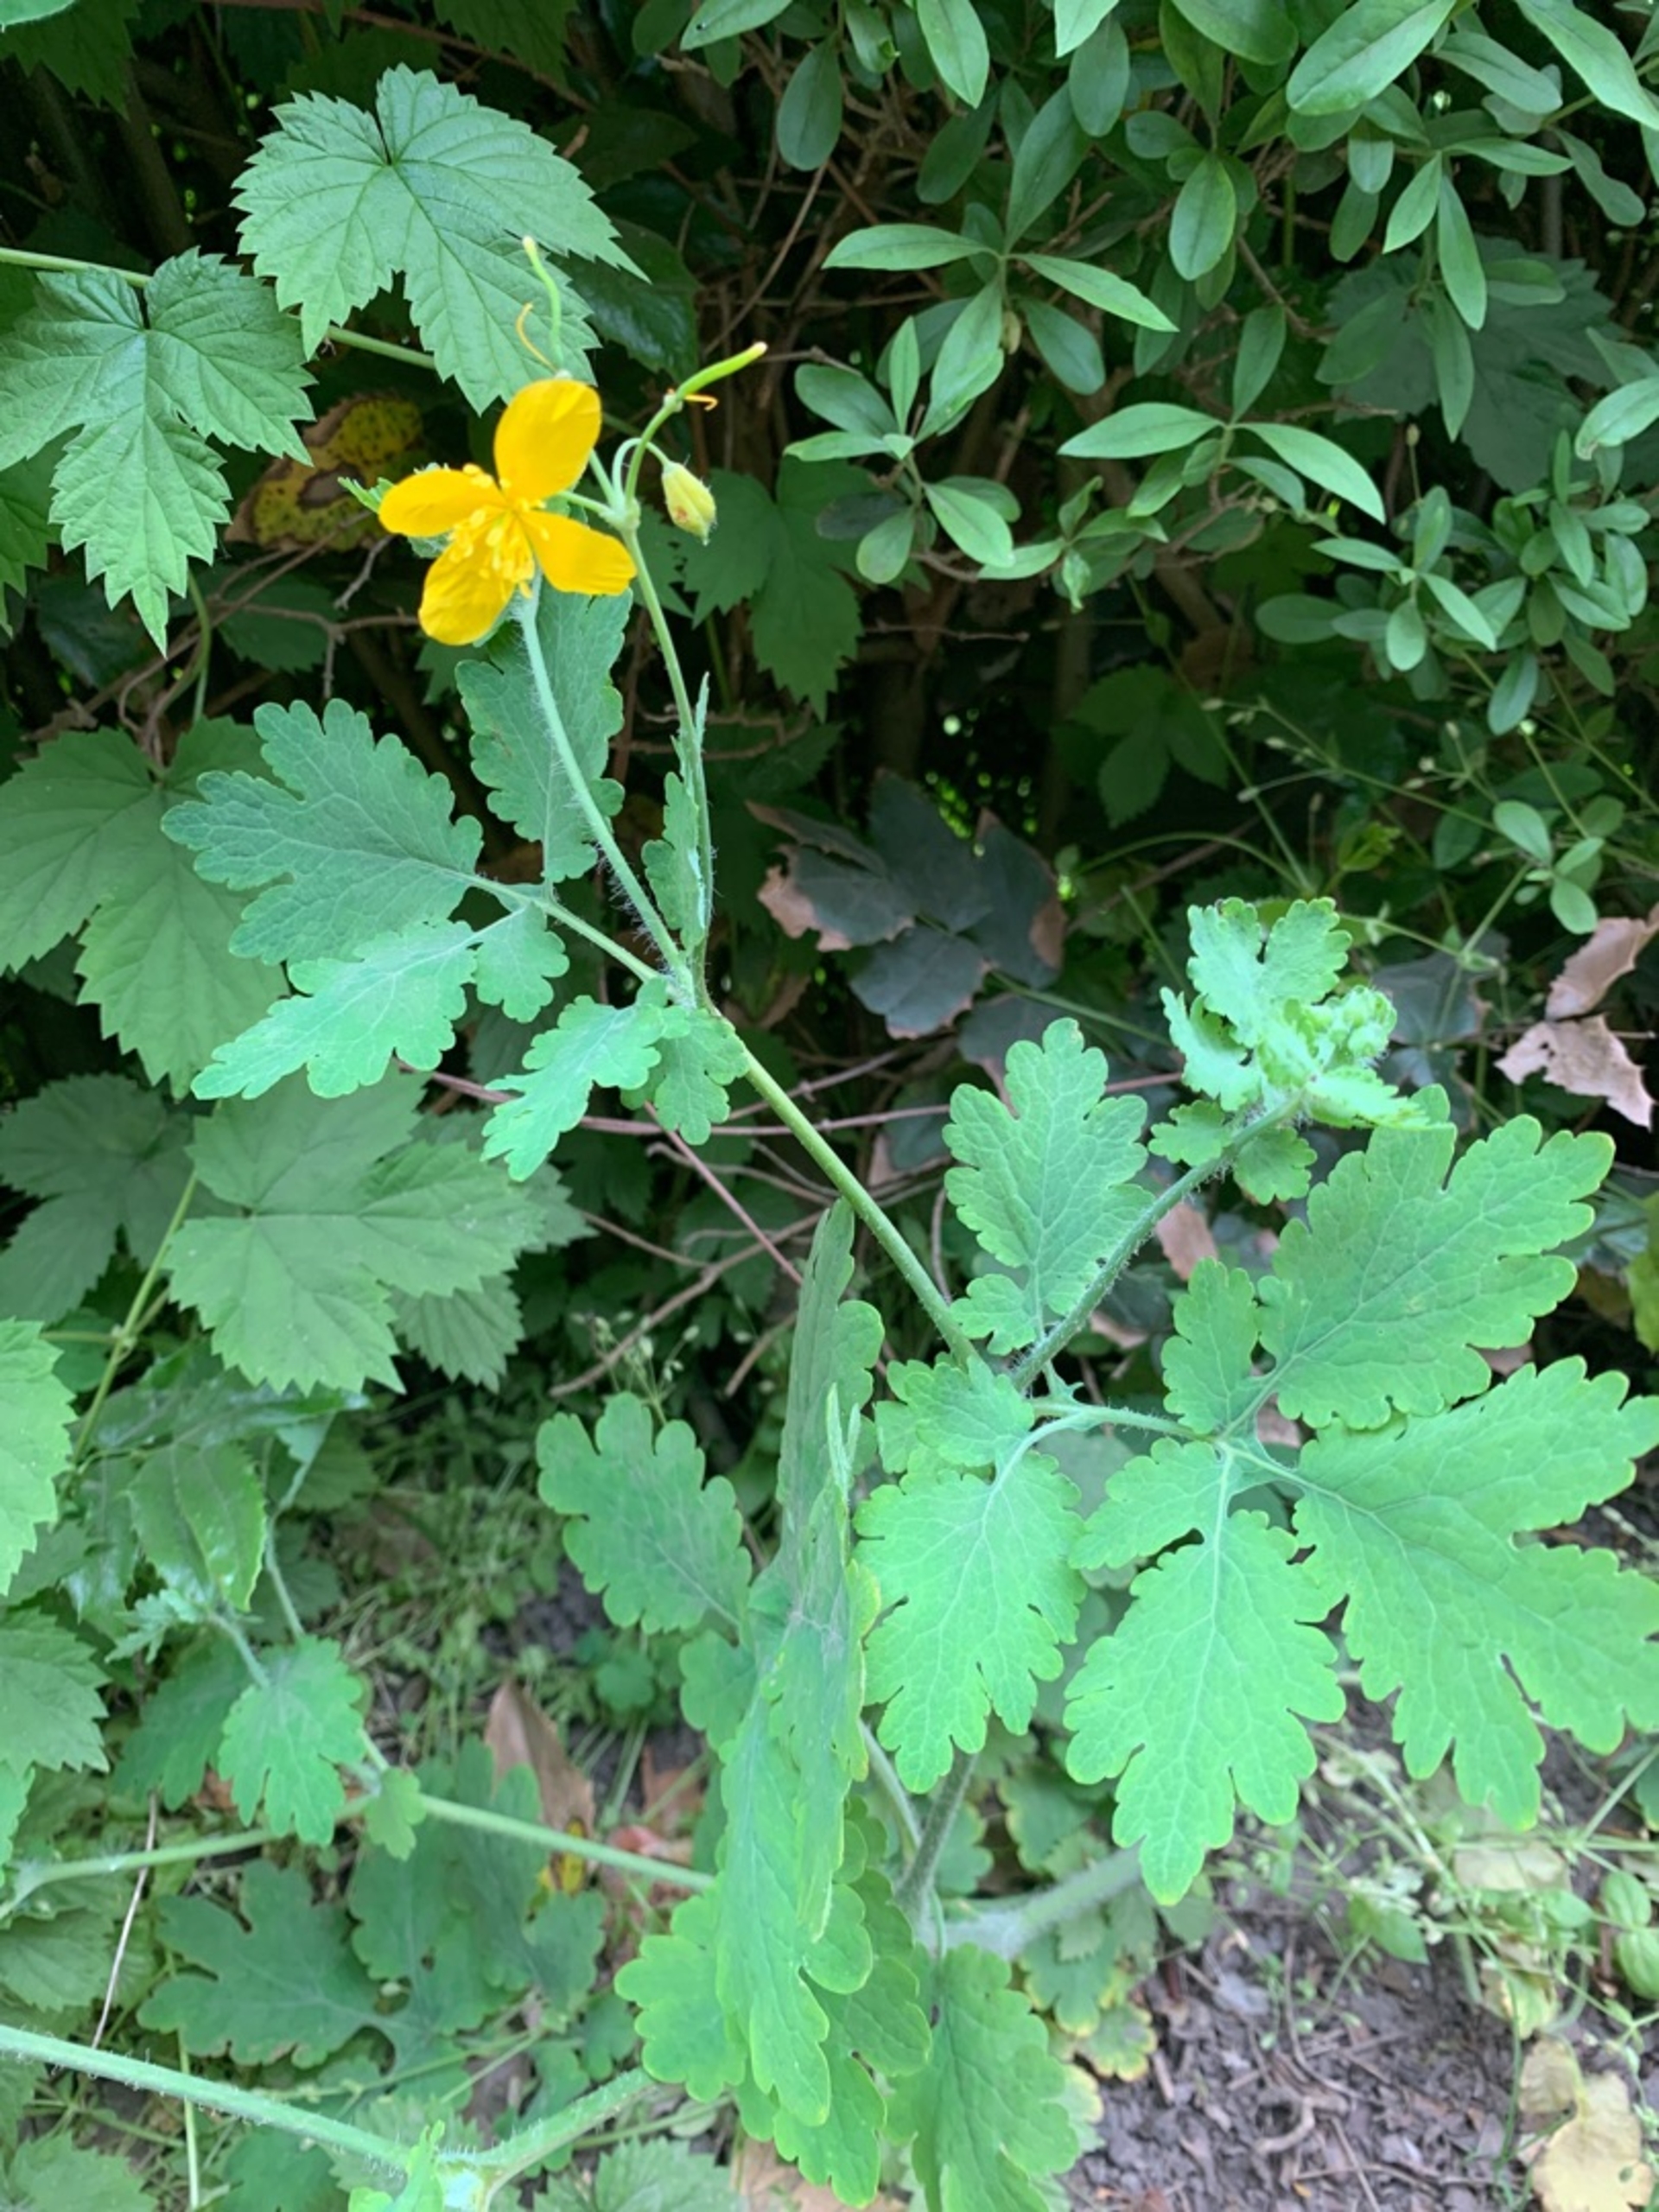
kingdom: Plantae
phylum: Tracheophyta
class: Magnoliopsida
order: Ranunculales
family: Papaveraceae
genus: Chelidonium
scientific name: Chelidonium majus
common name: Svaleurt
